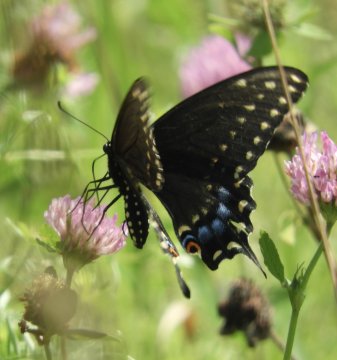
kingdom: Animalia
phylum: Arthropoda
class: Insecta
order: Lepidoptera
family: Papilionidae
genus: Papilio
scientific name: Papilio polyxenes
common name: Black Swallowtail
